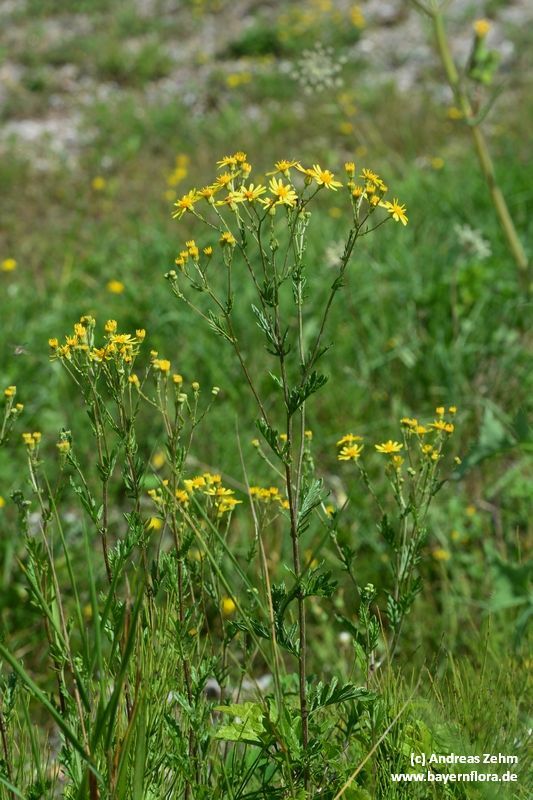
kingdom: Plantae
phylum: Tracheophyta
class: Magnoliopsida
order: Asterales
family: Asteraceae
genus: Jacobaea
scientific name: Jacobaea erucifolia
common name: Hoary ragwort
